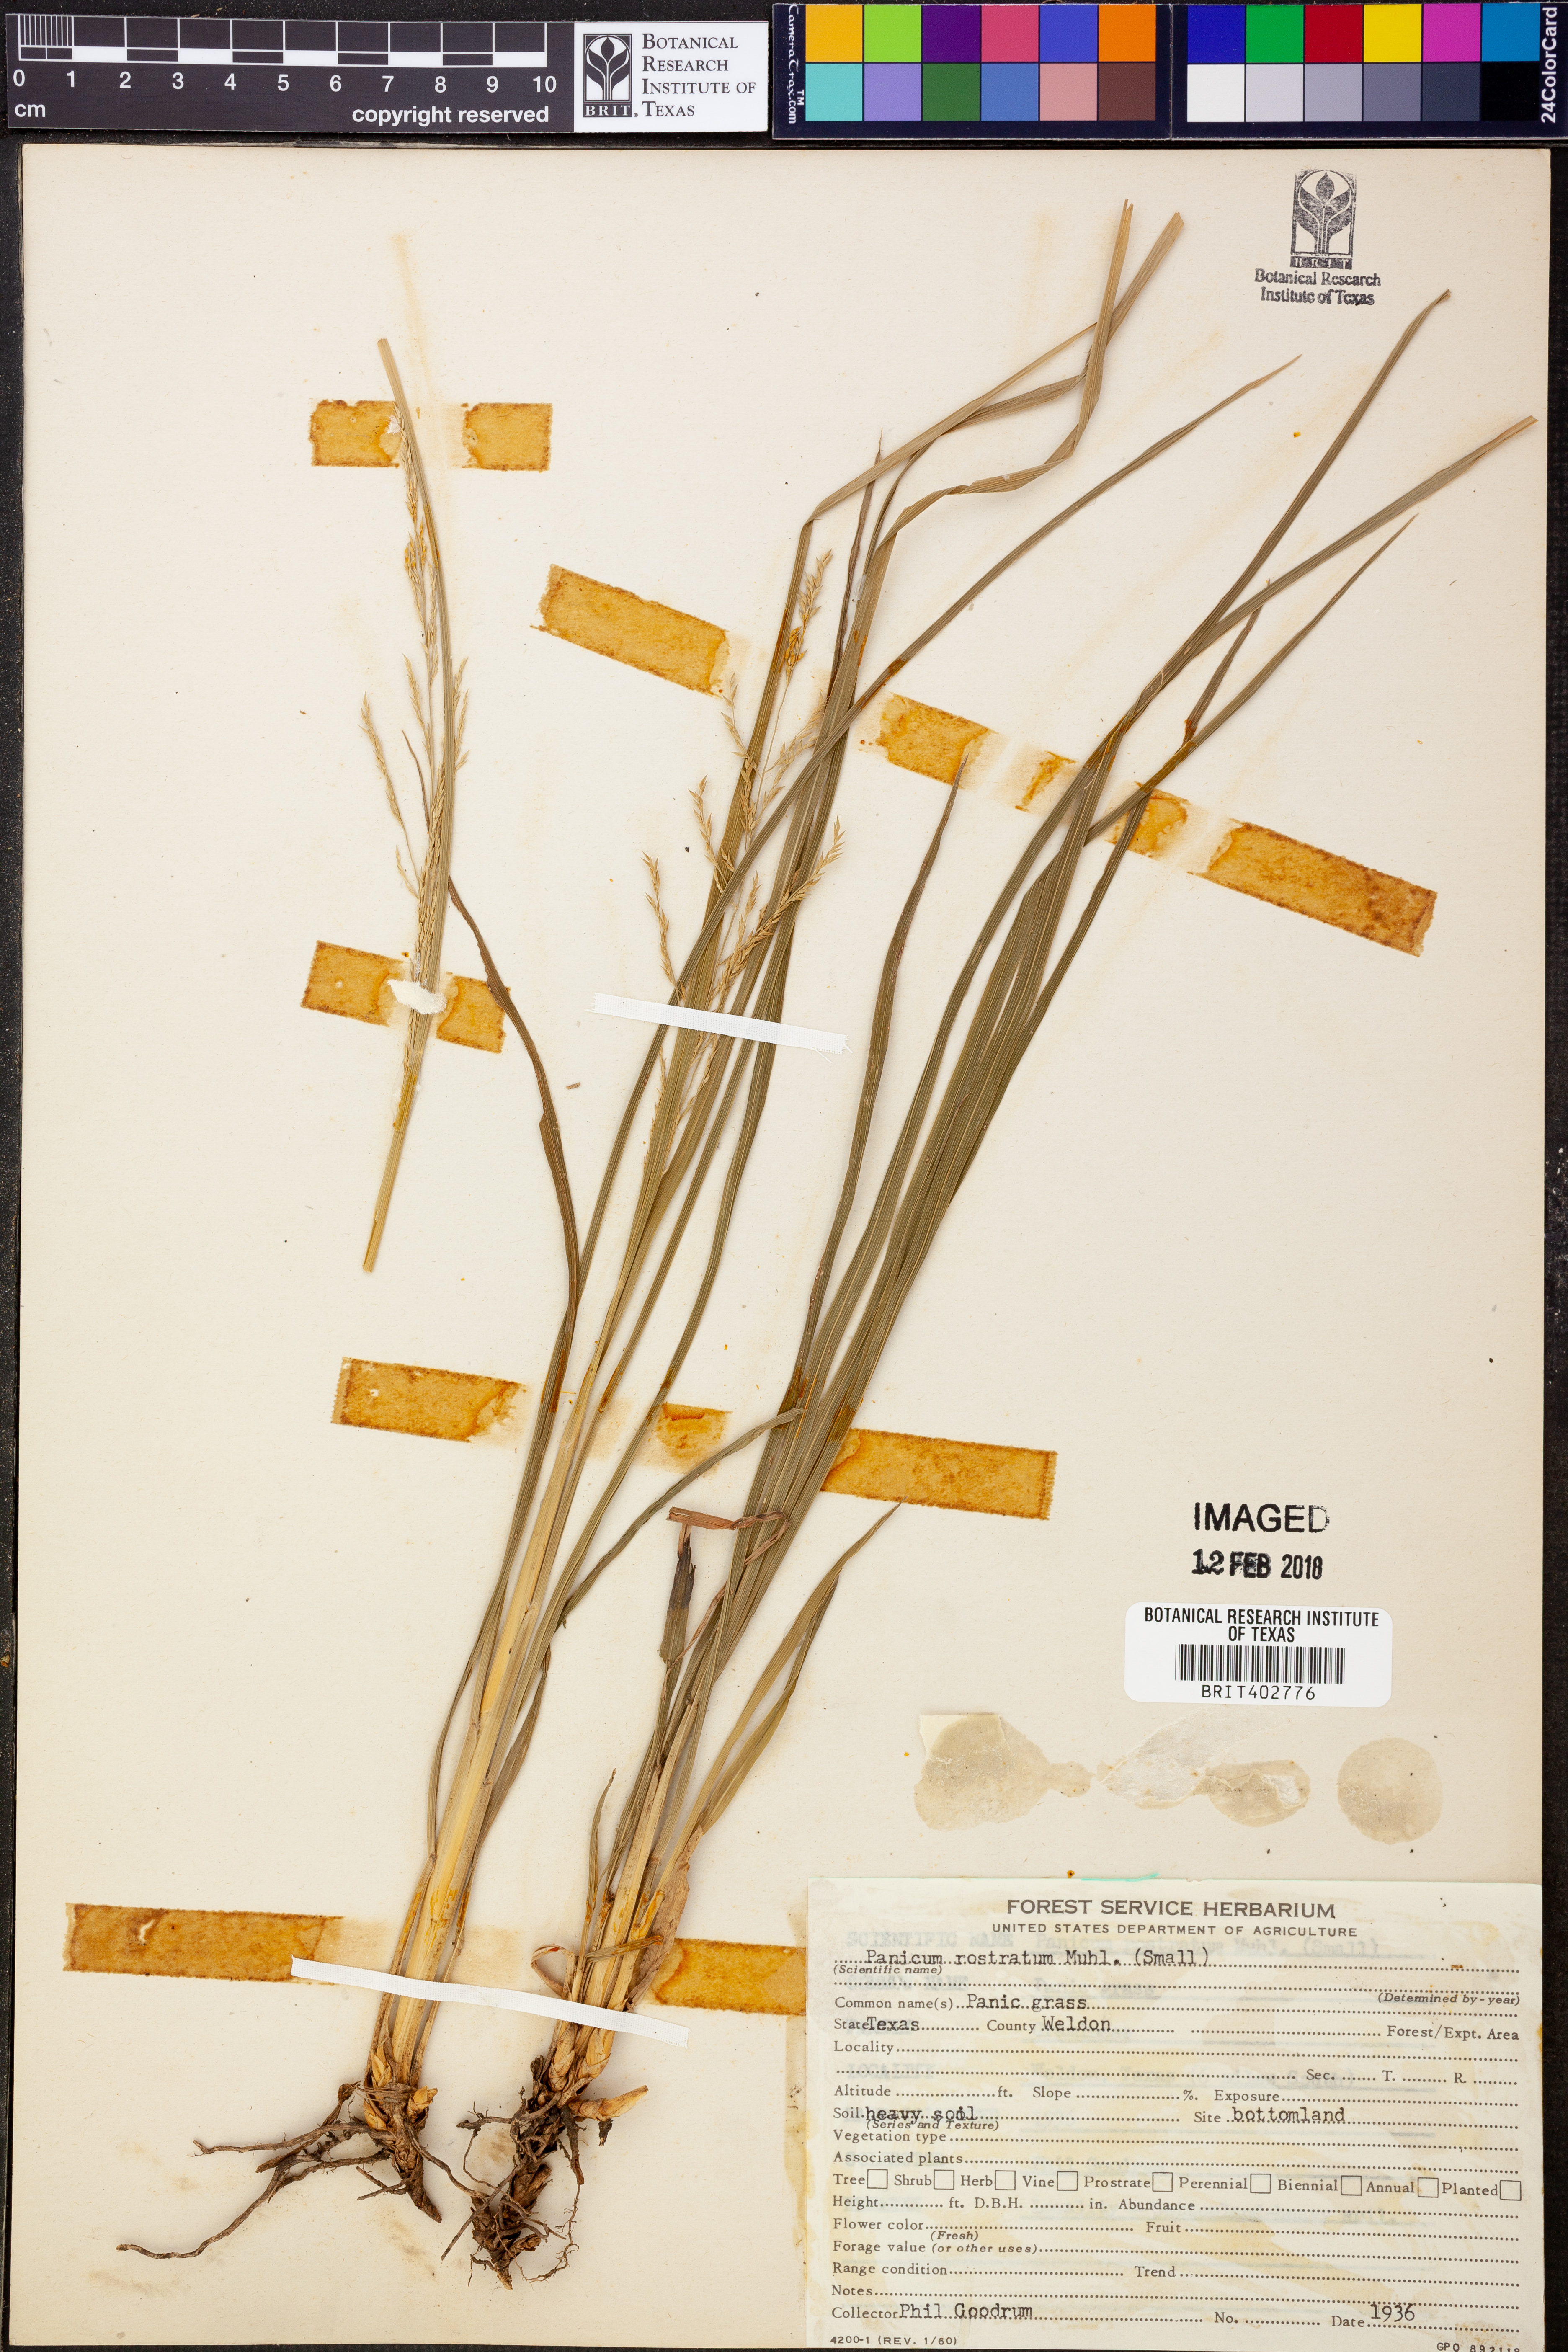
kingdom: Plantae
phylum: Tracheophyta
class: Liliopsida
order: Poales
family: Poaceae
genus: Coleataenia
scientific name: Coleataenia anceps
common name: Beaked panic grass
